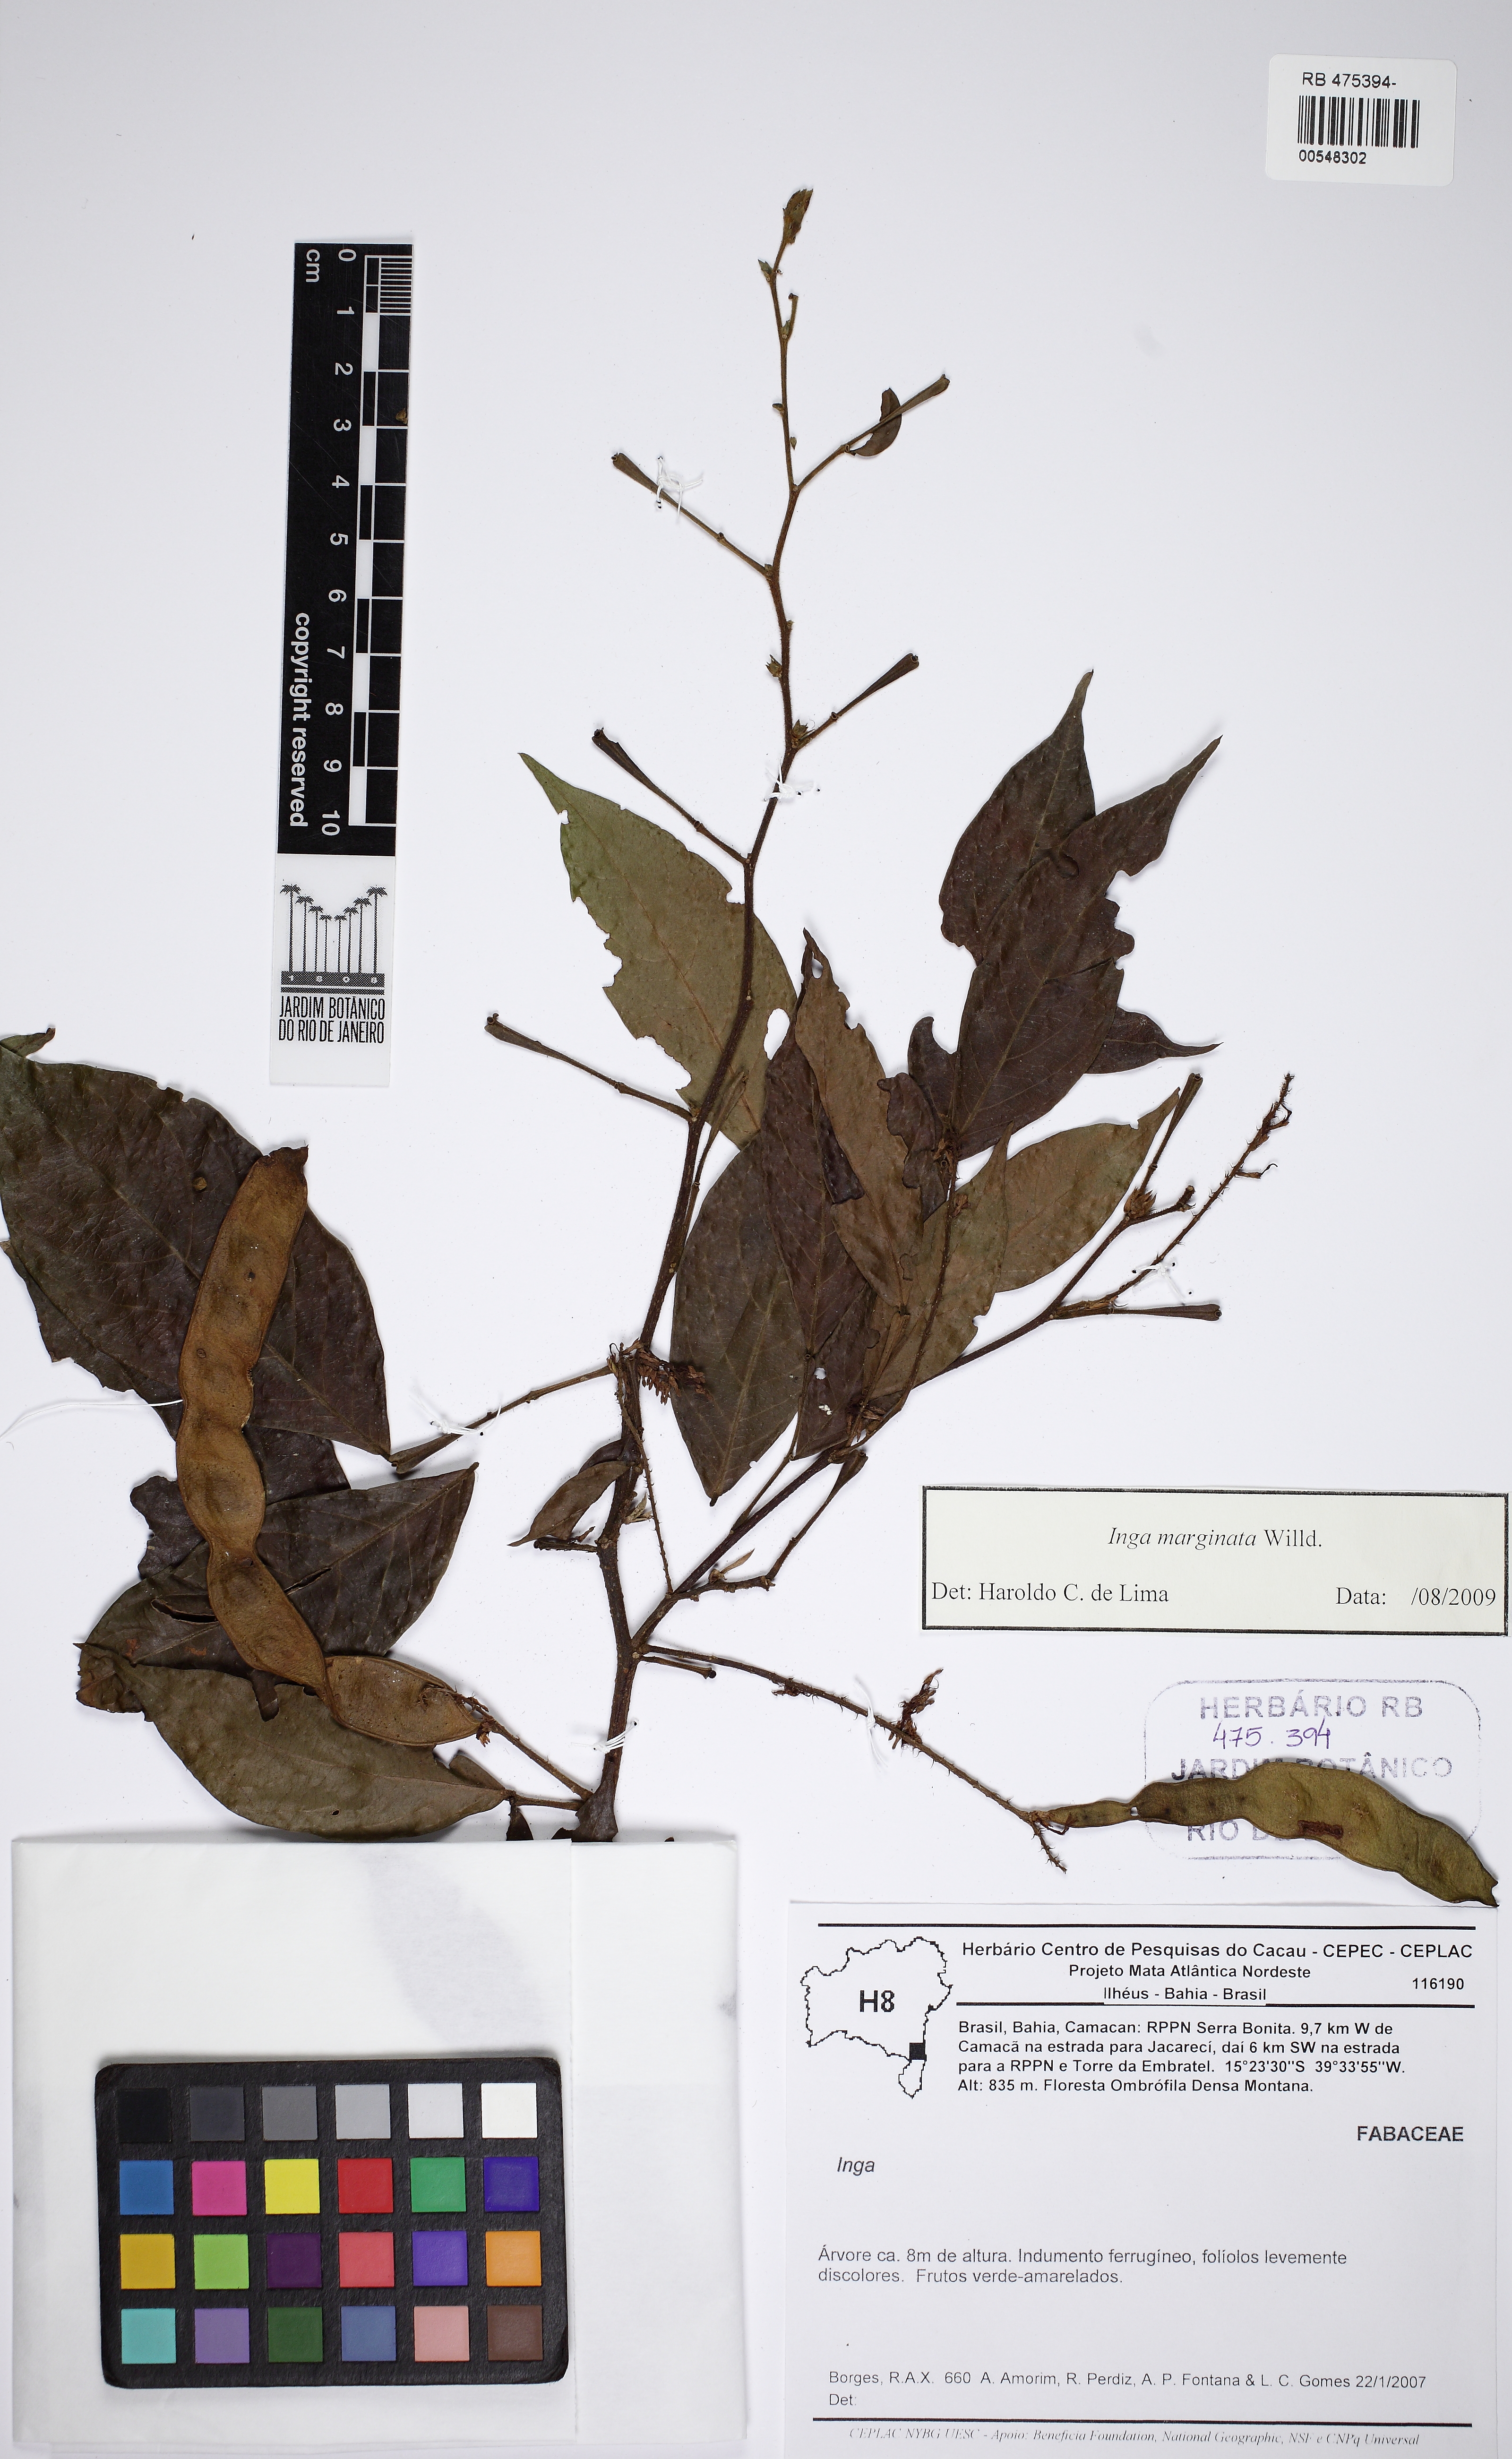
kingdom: Plantae
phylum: Tracheophyta
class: Magnoliopsida
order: Fabales
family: Fabaceae
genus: Inga
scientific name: Inga marginata
